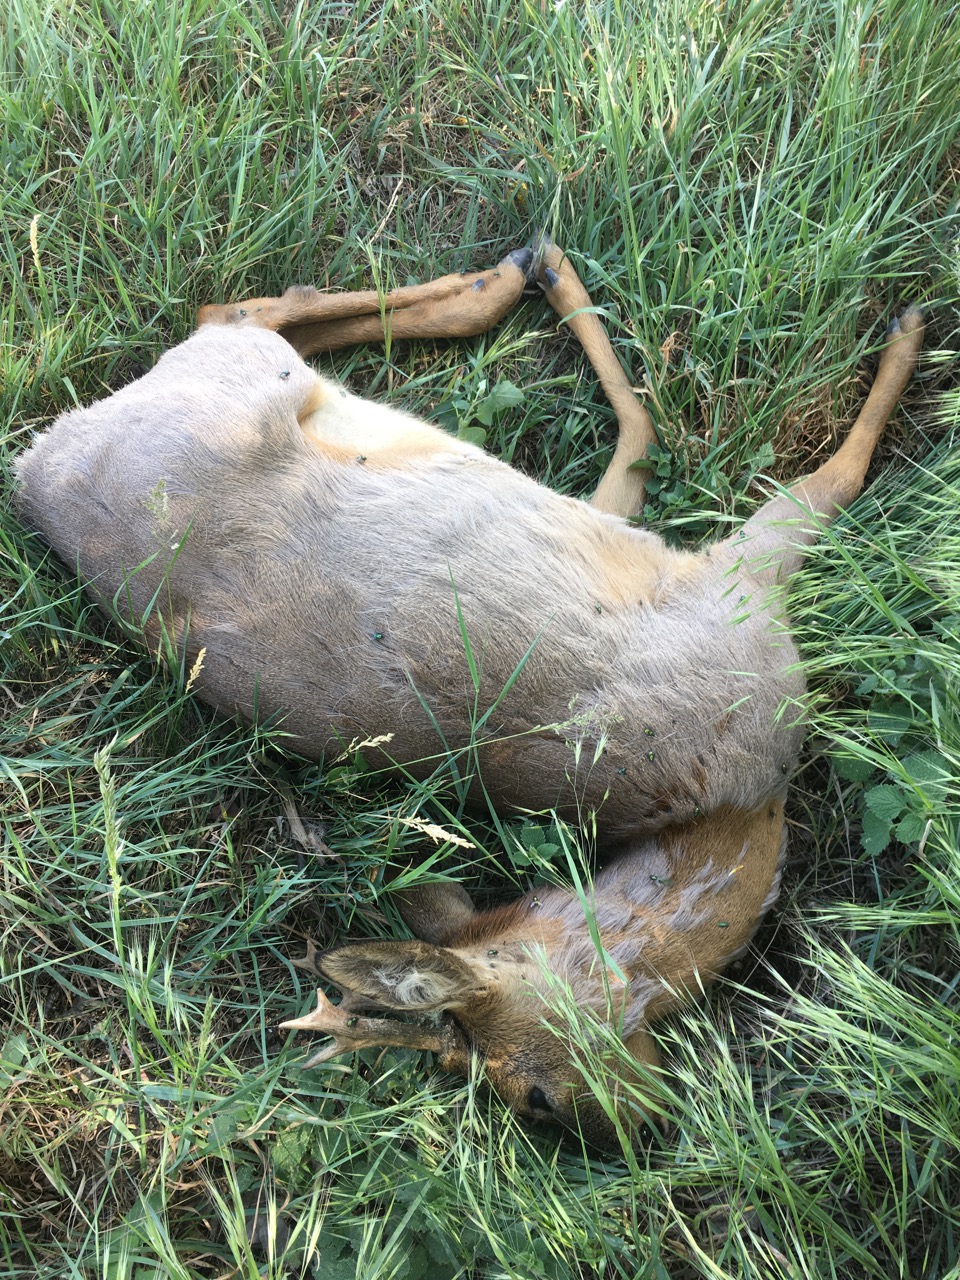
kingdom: Animalia
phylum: Chordata
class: Mammalia
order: Artiodactyla
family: Cervidae
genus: Capreolus
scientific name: Capreolus capreolus
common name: Western roe deer
